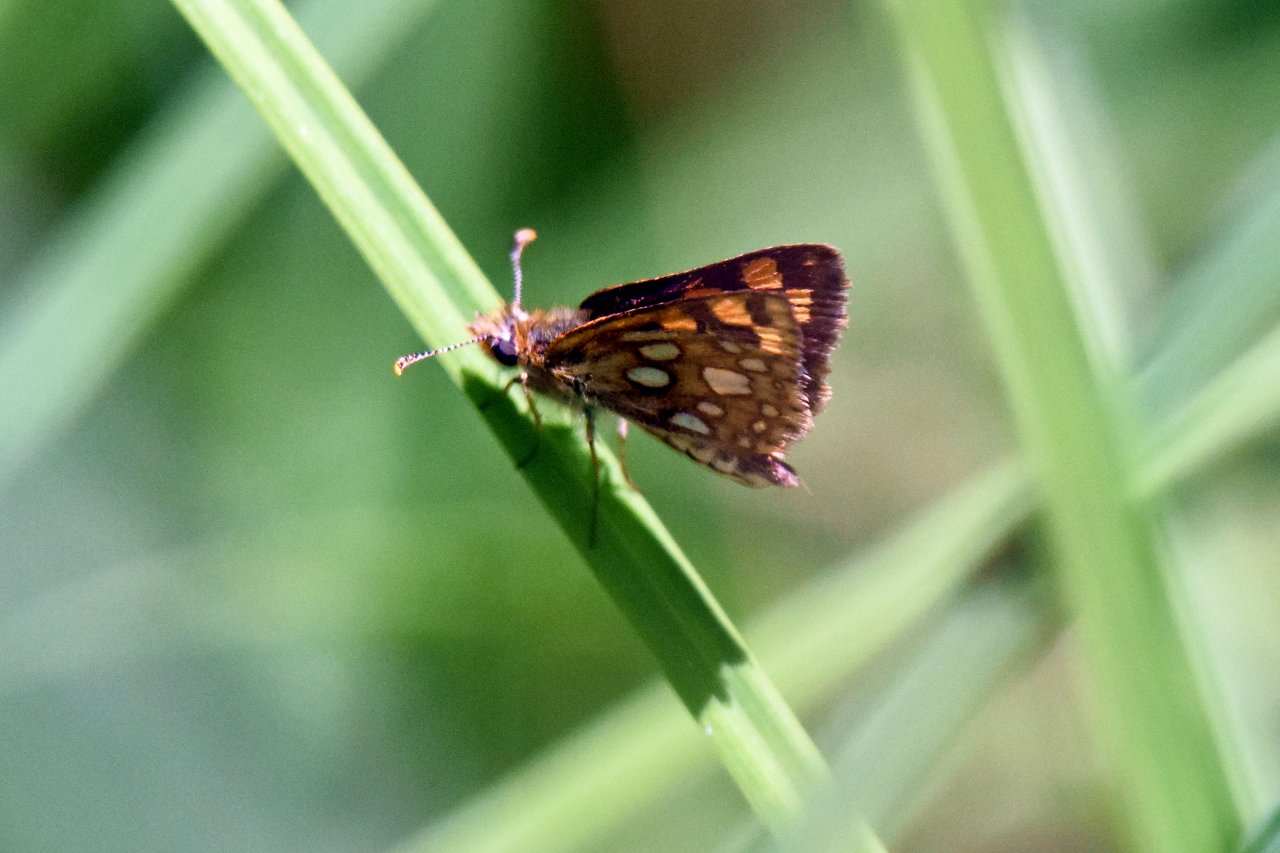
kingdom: Animalia
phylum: Arthropoda
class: Insecta
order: Lepidoptera
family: Hesperiidae
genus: Carterocephalus
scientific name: Carterocephalus palaemon
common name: Chequered Skipper
